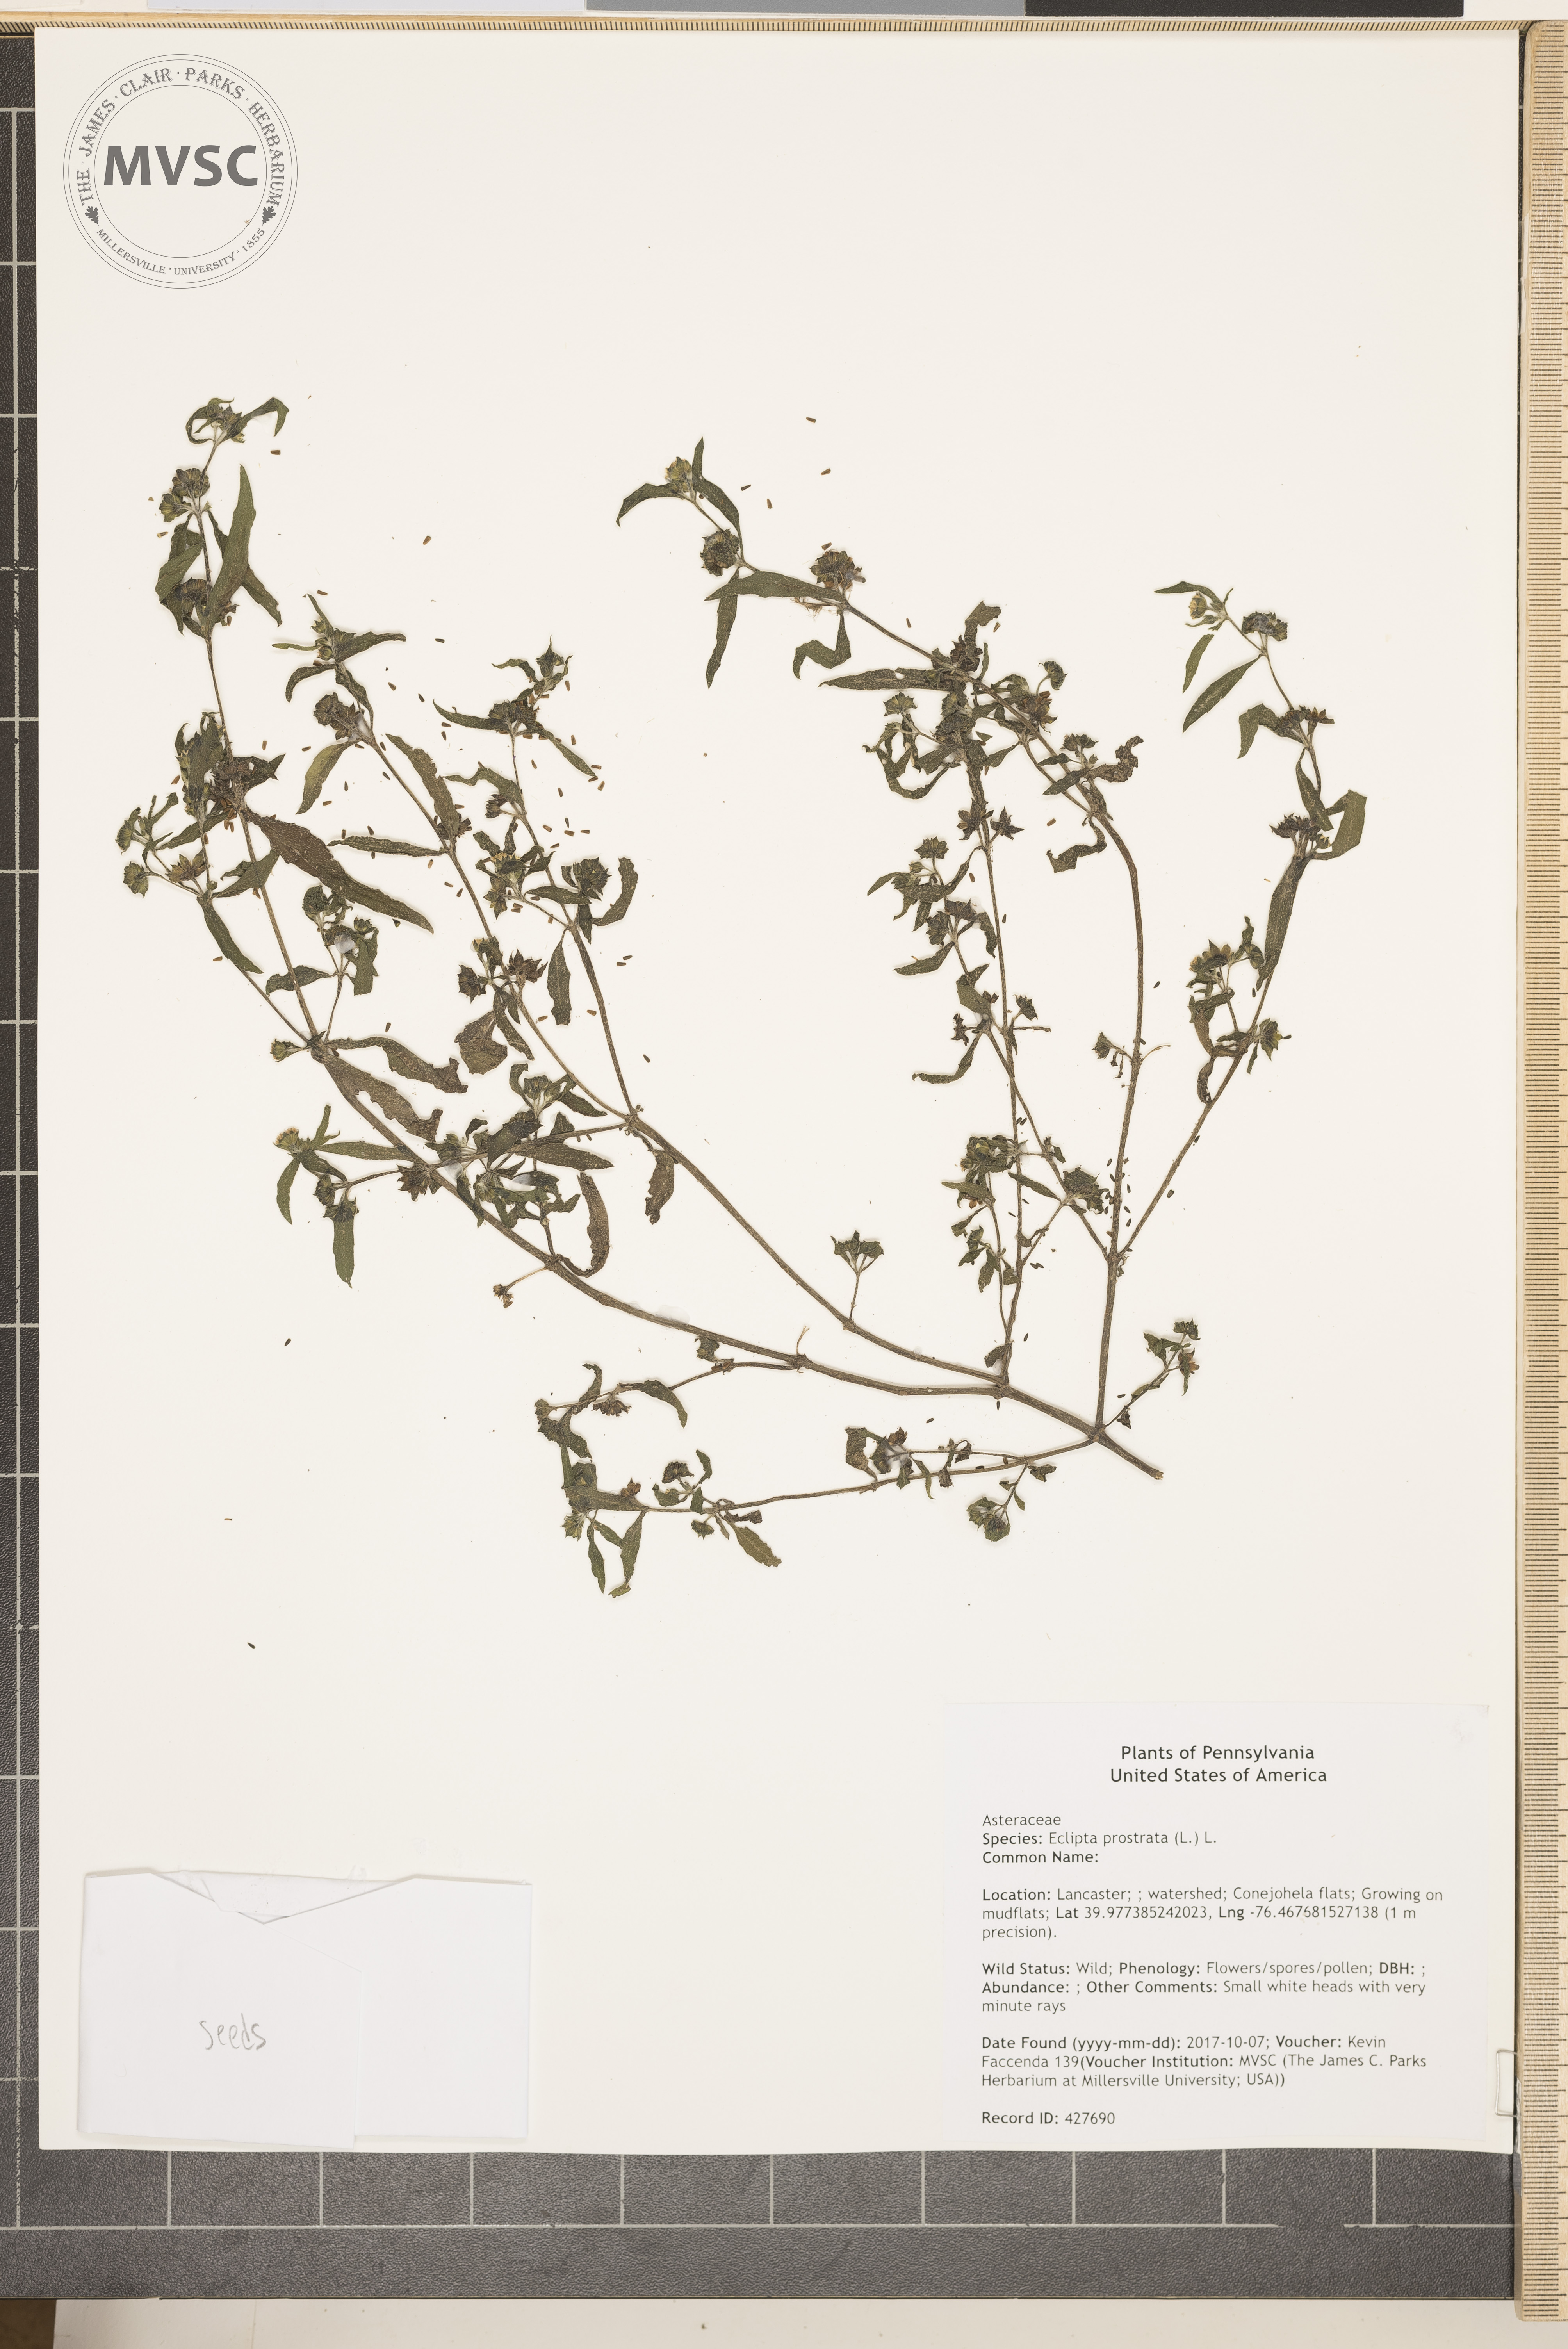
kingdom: Plantae
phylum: Tracheophyta
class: Magnoliopsida
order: Asterales
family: Asteraceae
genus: Eclipta
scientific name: Eclipta prostrata
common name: False daisy
